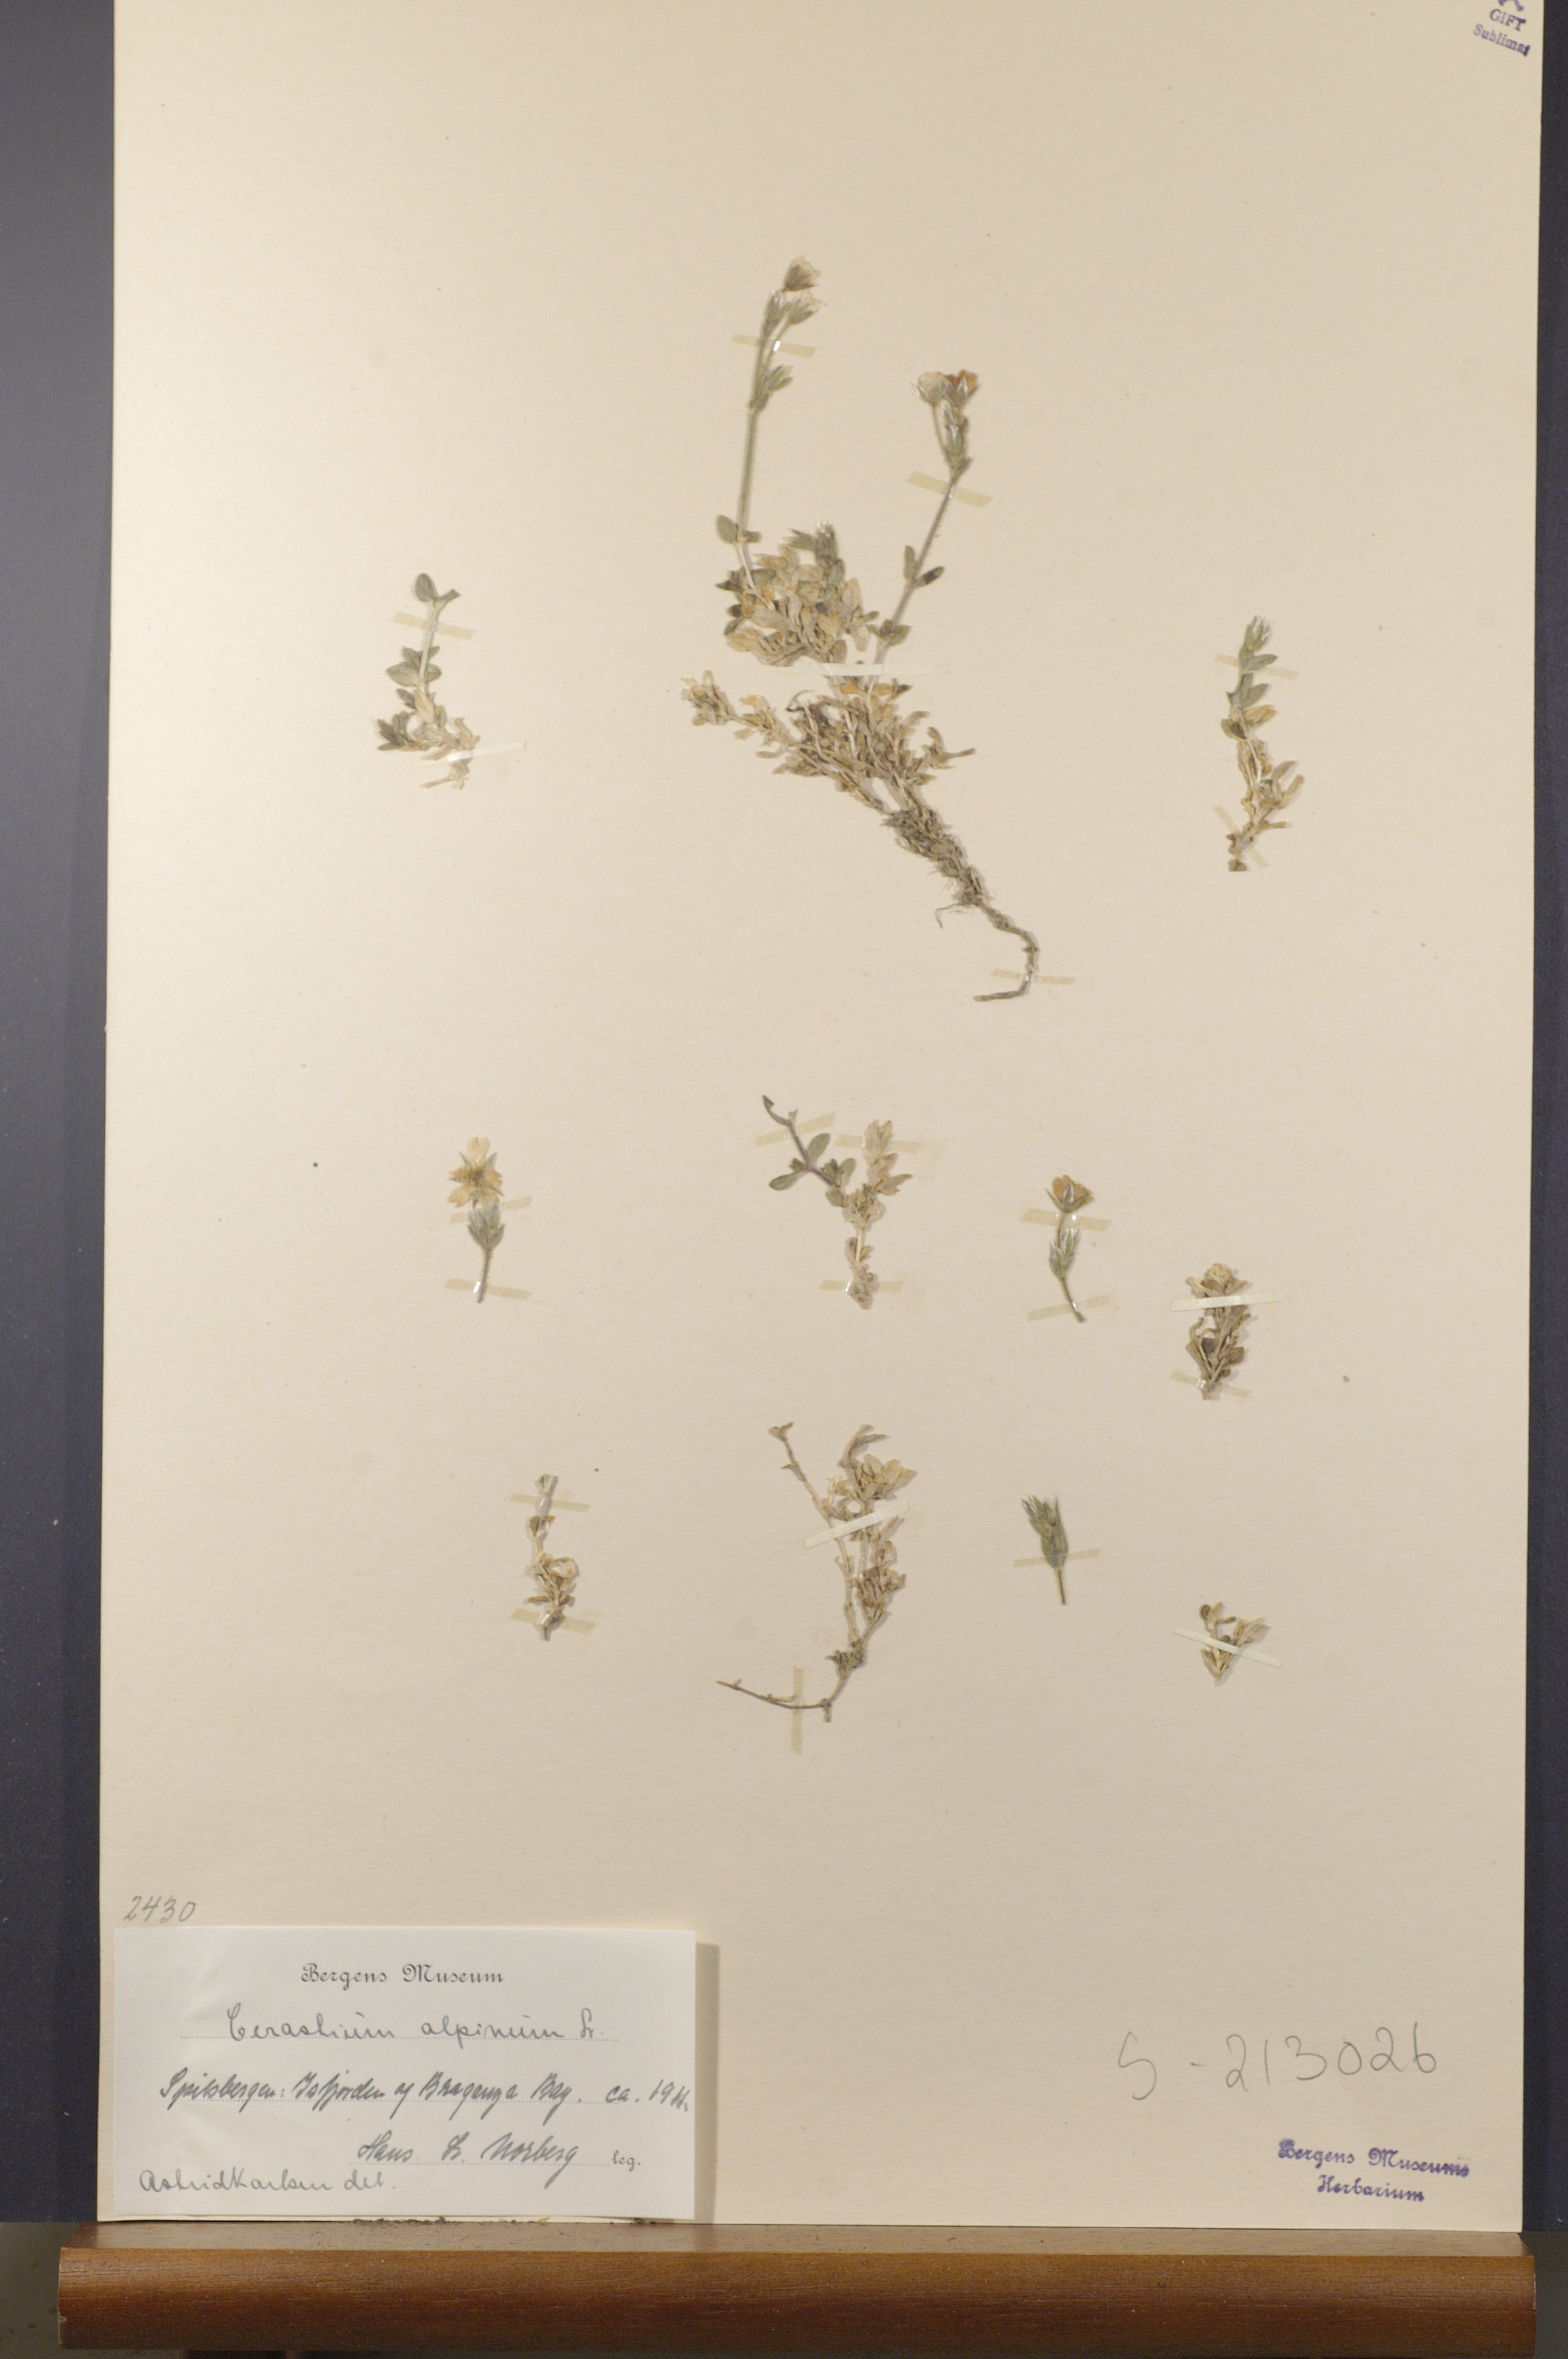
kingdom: Plantae
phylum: Tracheophyta
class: Magnoliopsida
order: Caryophyllales
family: Caryophyllaceae
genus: Cerastium
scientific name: Cerastium alpinum
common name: Alpine mouse-ear
